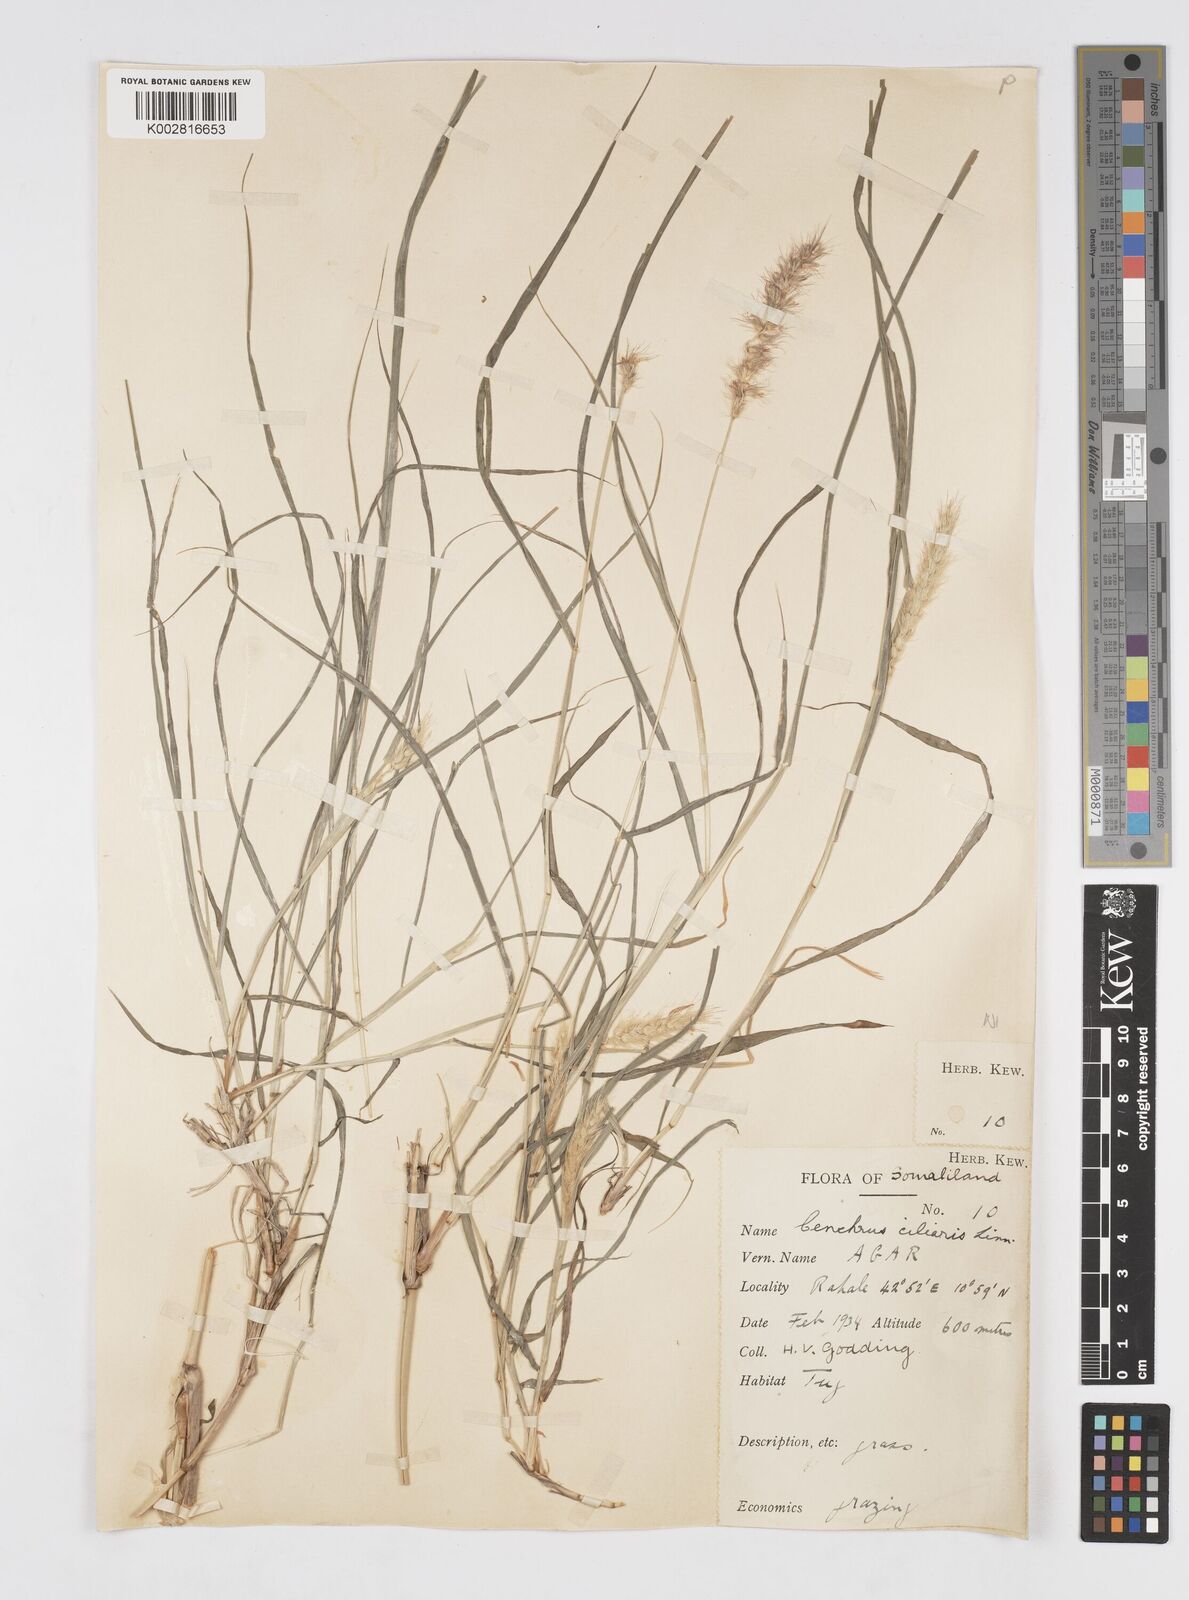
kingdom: Plantae
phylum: Tracheophyta
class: Liliopsida
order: Poales
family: Poaceae
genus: Cenchrus
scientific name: Cenchrus ciliaris
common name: Buffelgrass
